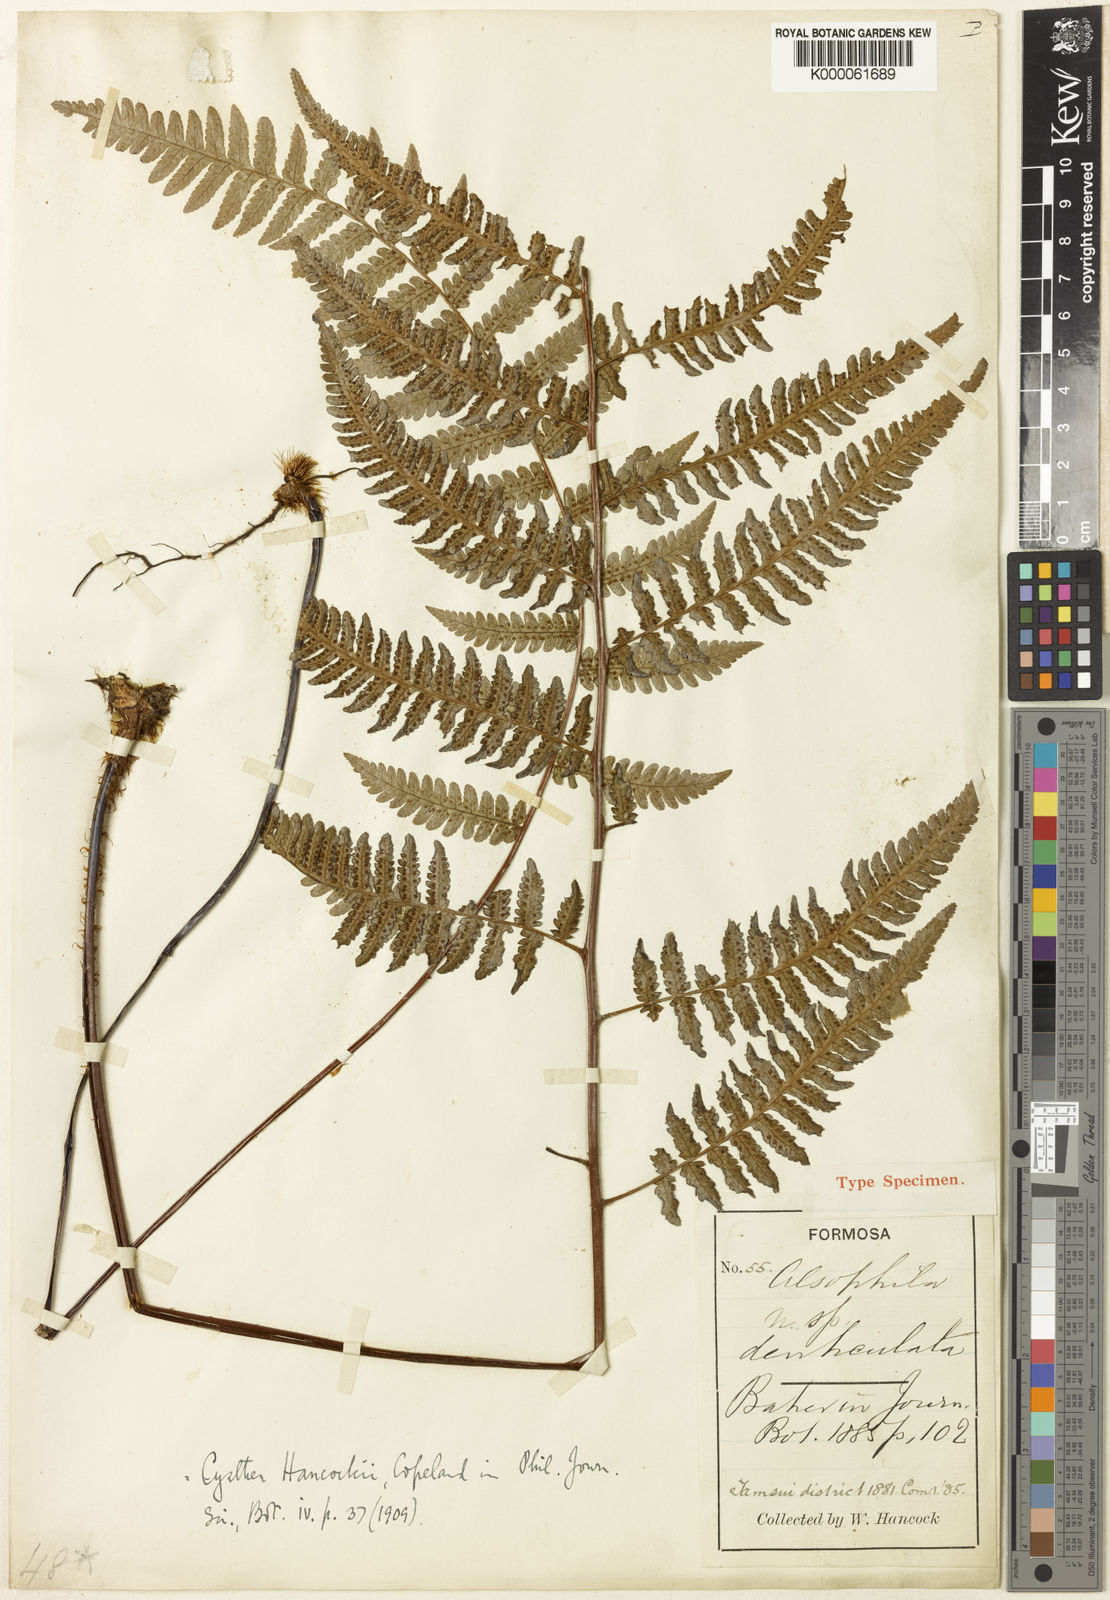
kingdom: Plantae
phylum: Tracheophyta
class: Polypodiopsida
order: Cyatheales
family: Cyatheaceae
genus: Gymnosphaera
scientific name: Gymnosphaera denticulata
